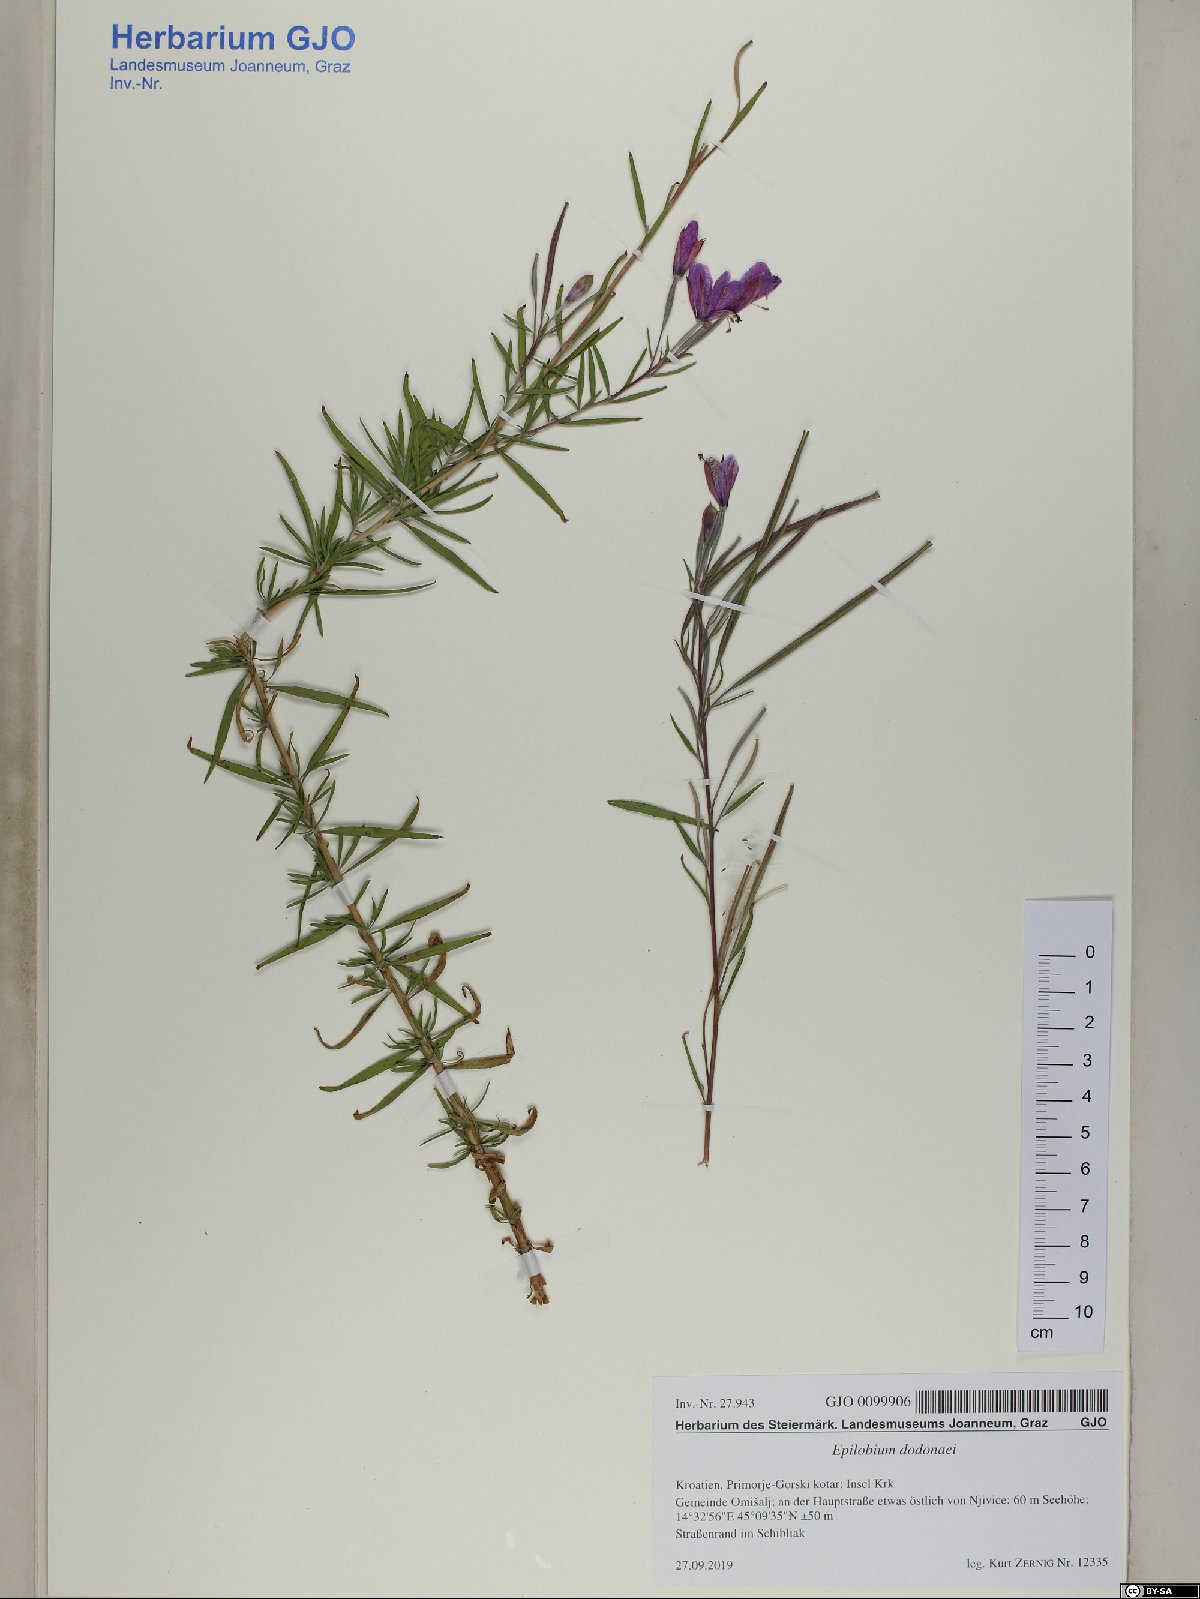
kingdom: Plantae
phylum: Tracheophyta
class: Magnoliopsida
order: Myrtales
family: Onagraceae
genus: Chamaenerion
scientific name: Chamaenerion dodonaei
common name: Rosemary-leaved willowherb
